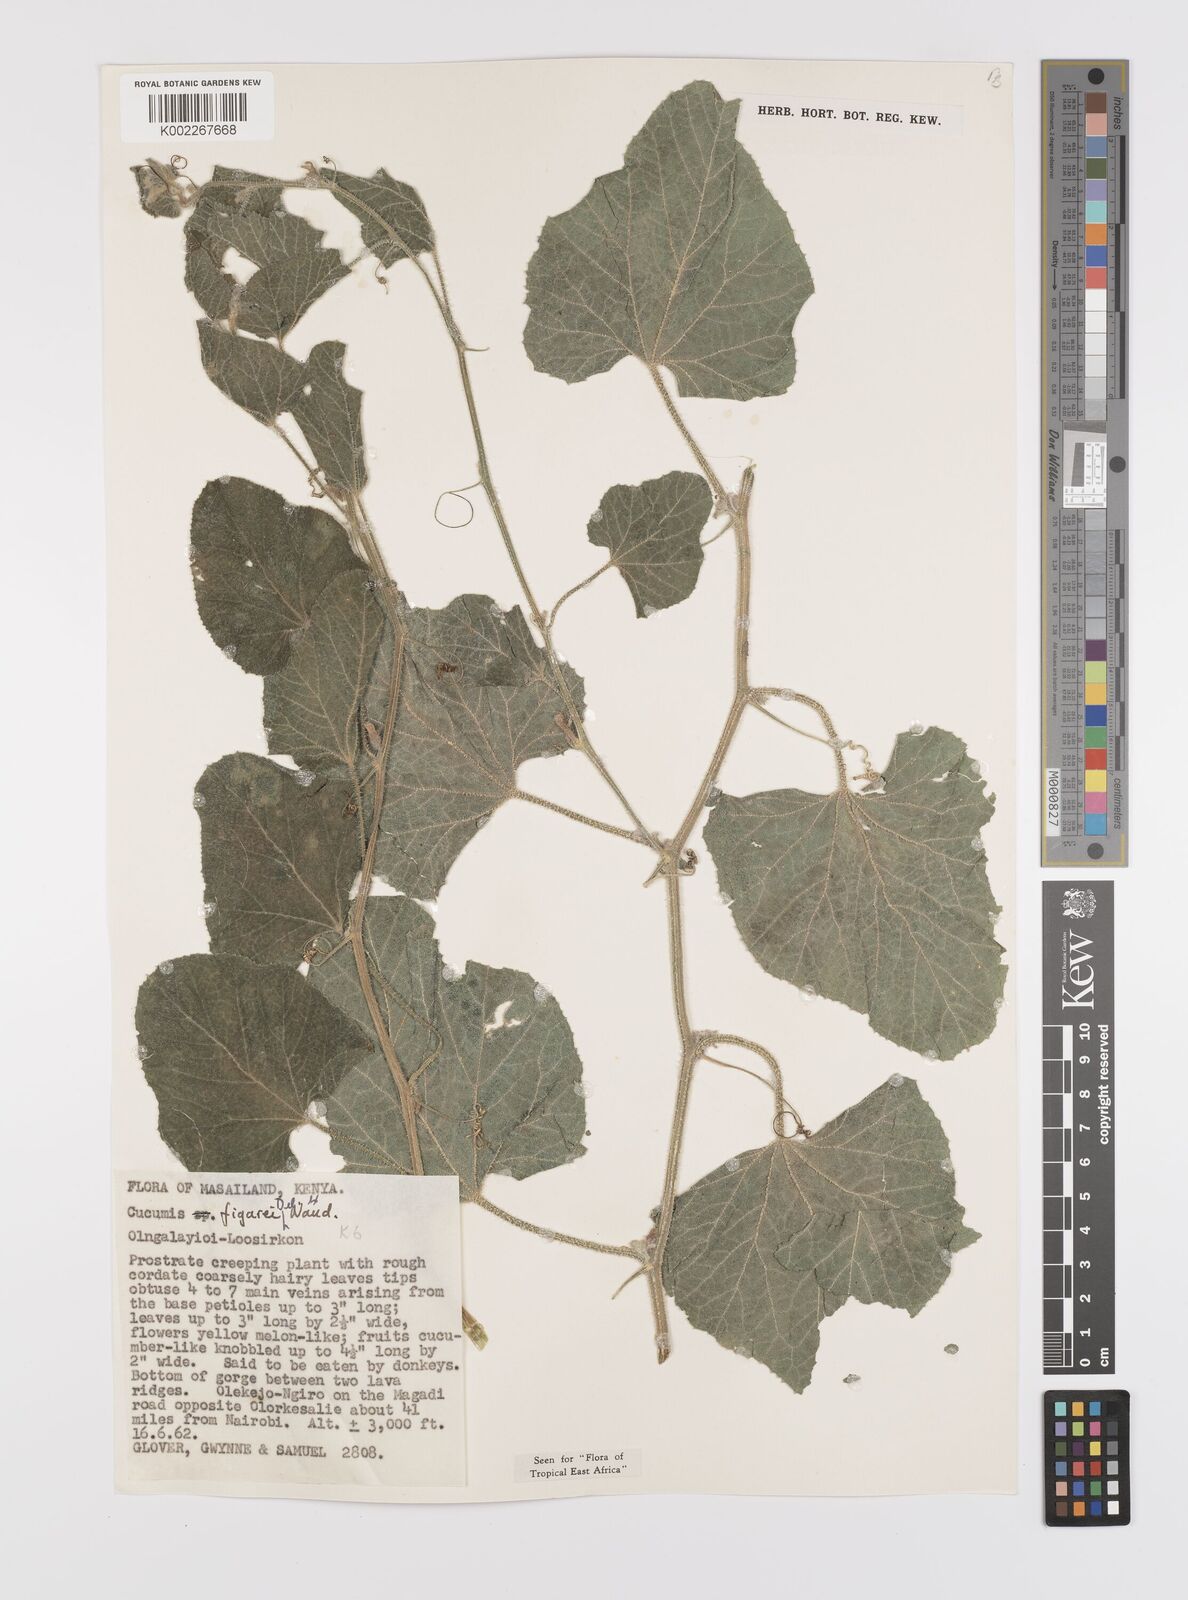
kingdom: Plantae
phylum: Tracheophyta
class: Magnoliopsida
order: Cucurbitales
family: Cucurbitaceae
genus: Cucumis
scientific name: Cucumis
